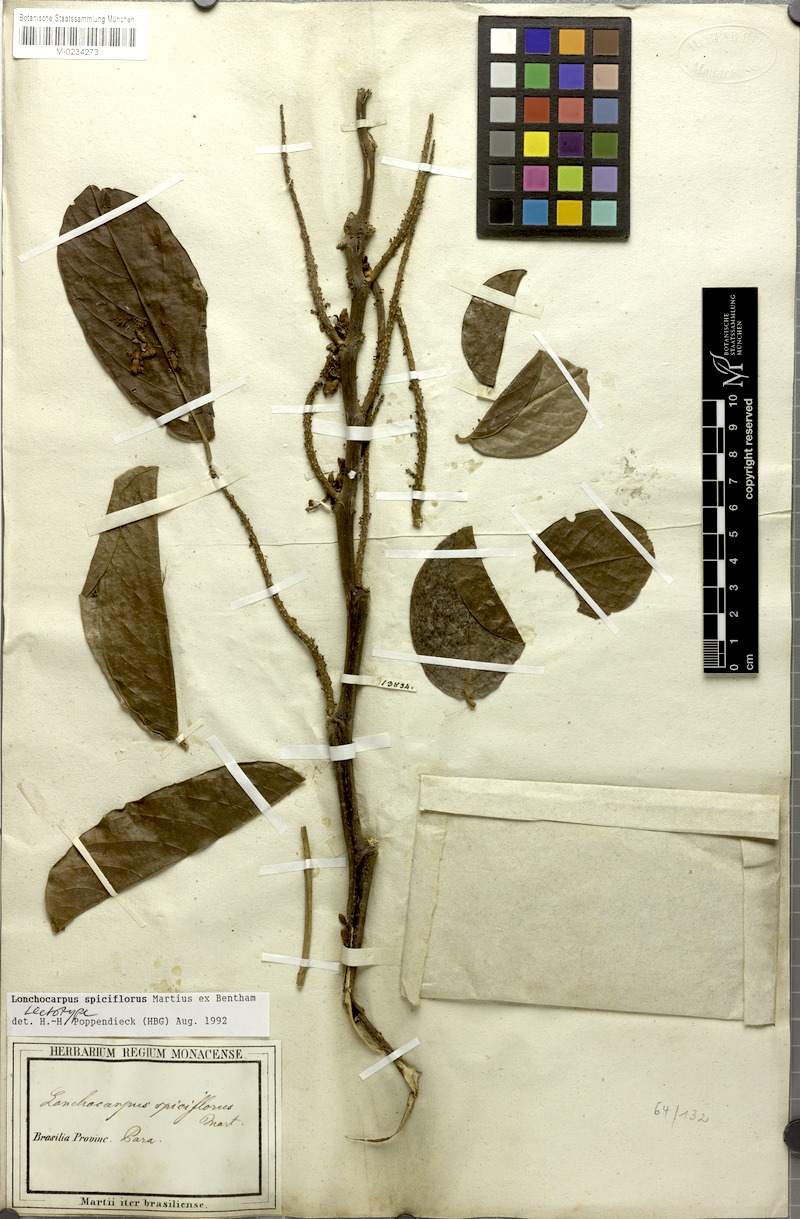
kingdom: Plantae
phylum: Tracheophyta
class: Magnoliopsida
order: Fabales
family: Fabaceae
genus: Lonchocarpus
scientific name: Lonchocarpus spiciflorus
